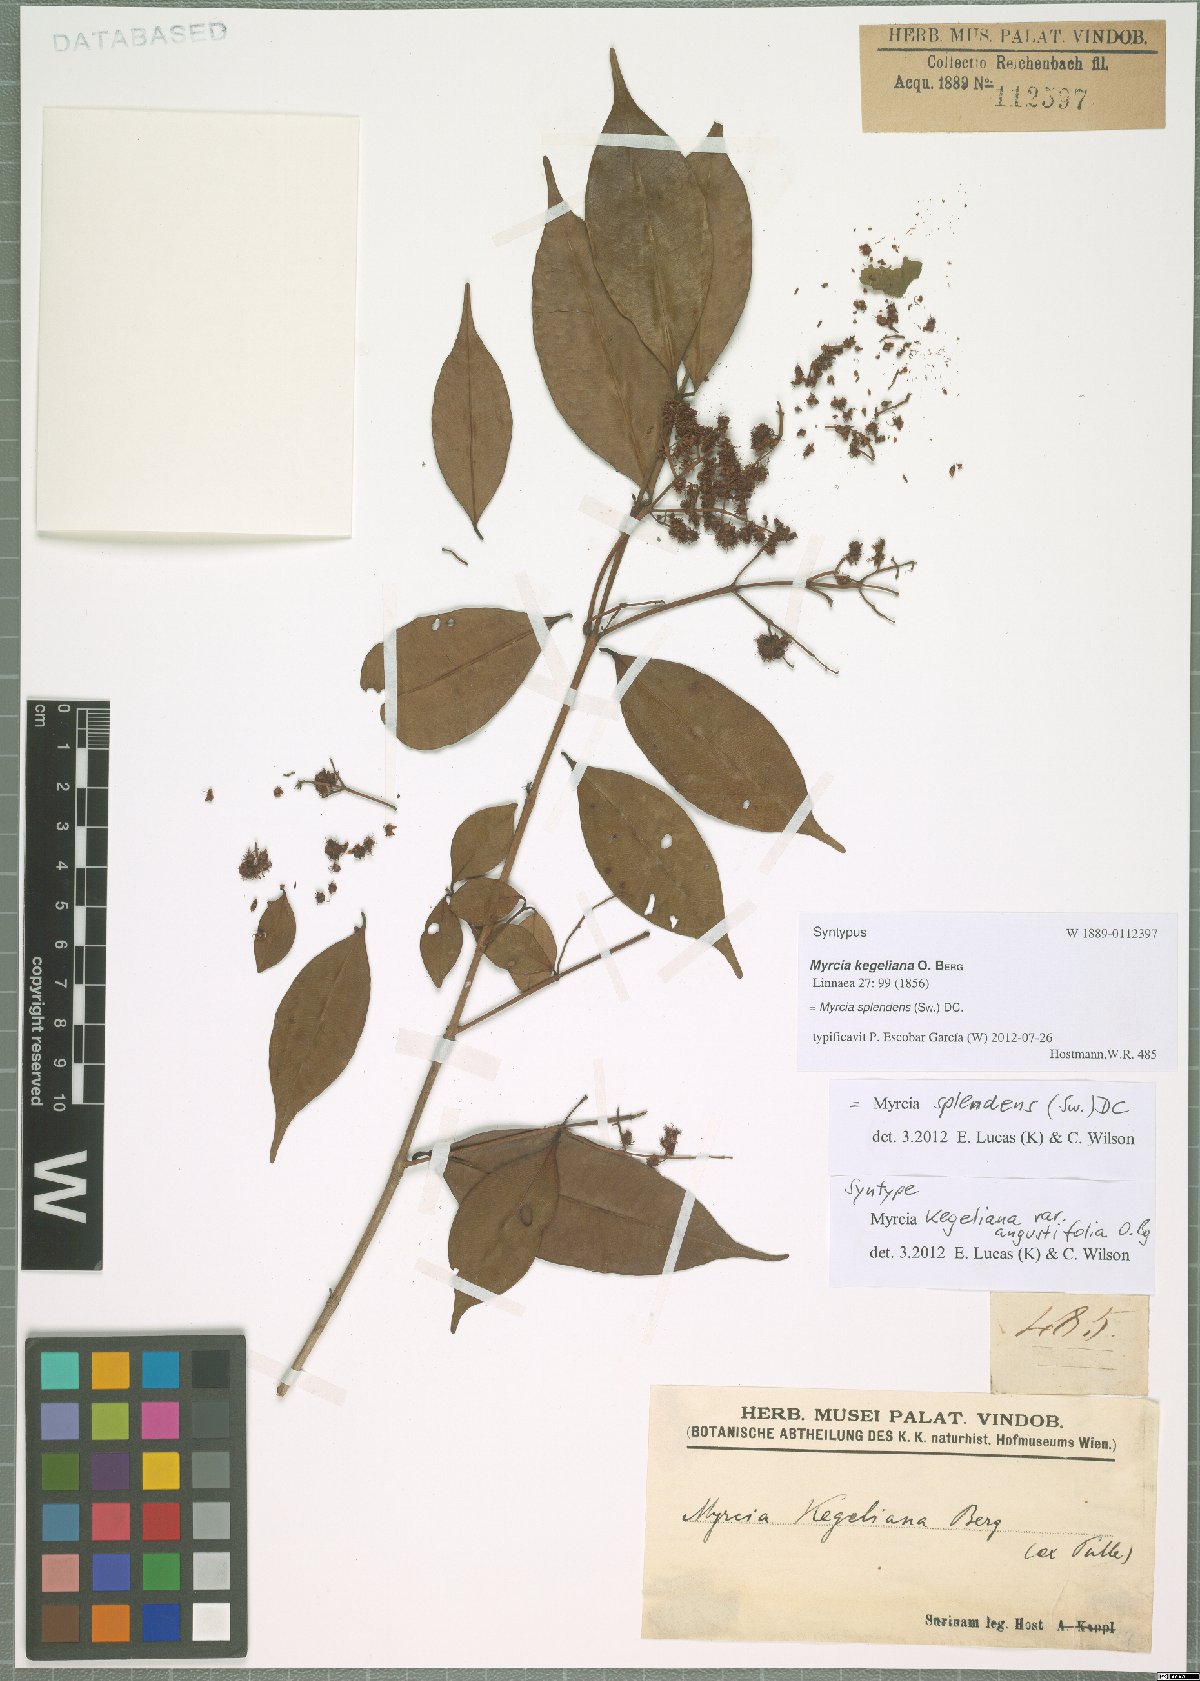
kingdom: Plantae
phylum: Tracheophyta
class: Magnoliopsida
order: Myrtales
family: Myrtaceae
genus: Myrcia
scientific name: Myrcia splendens
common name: Surinam cherry
